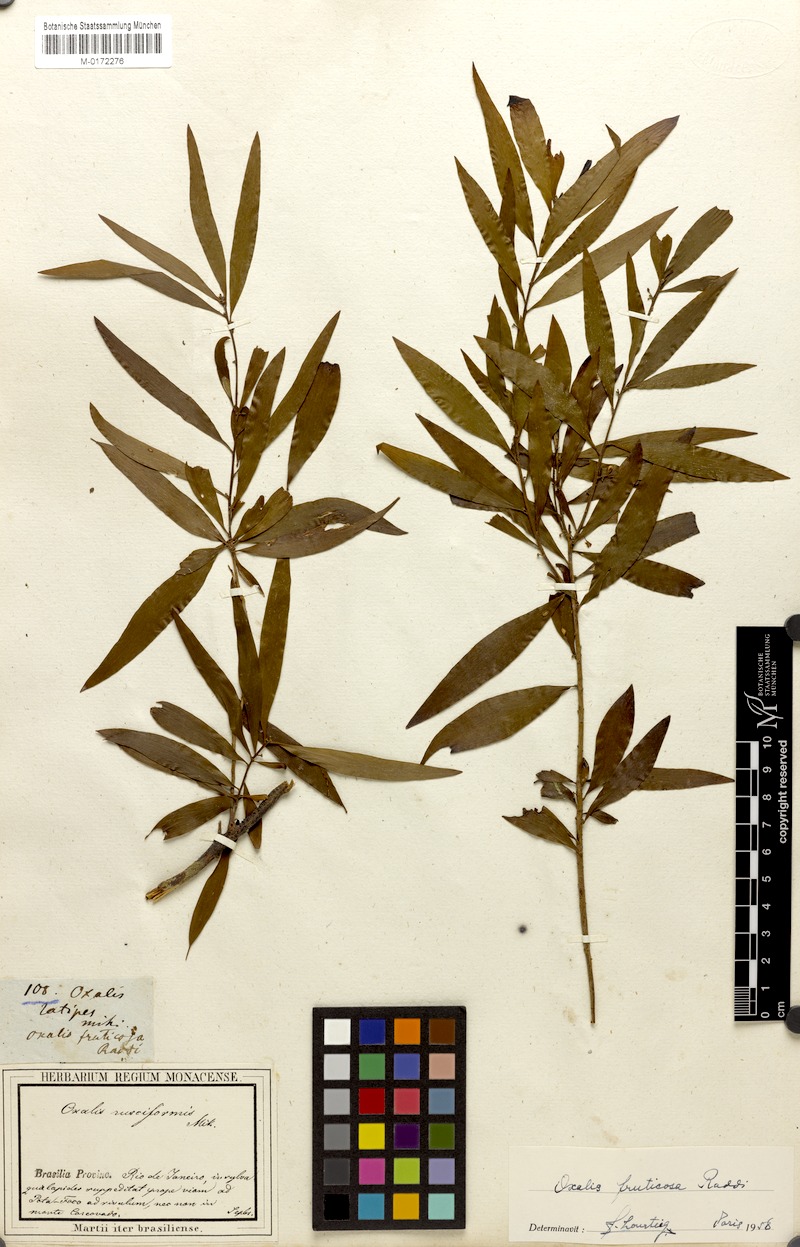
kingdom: Plantae
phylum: Tracheophyta
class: Magnoliopsida
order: Oxalidales
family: Oxalidaceae
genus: Oxalis
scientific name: Oxalis peruviana
